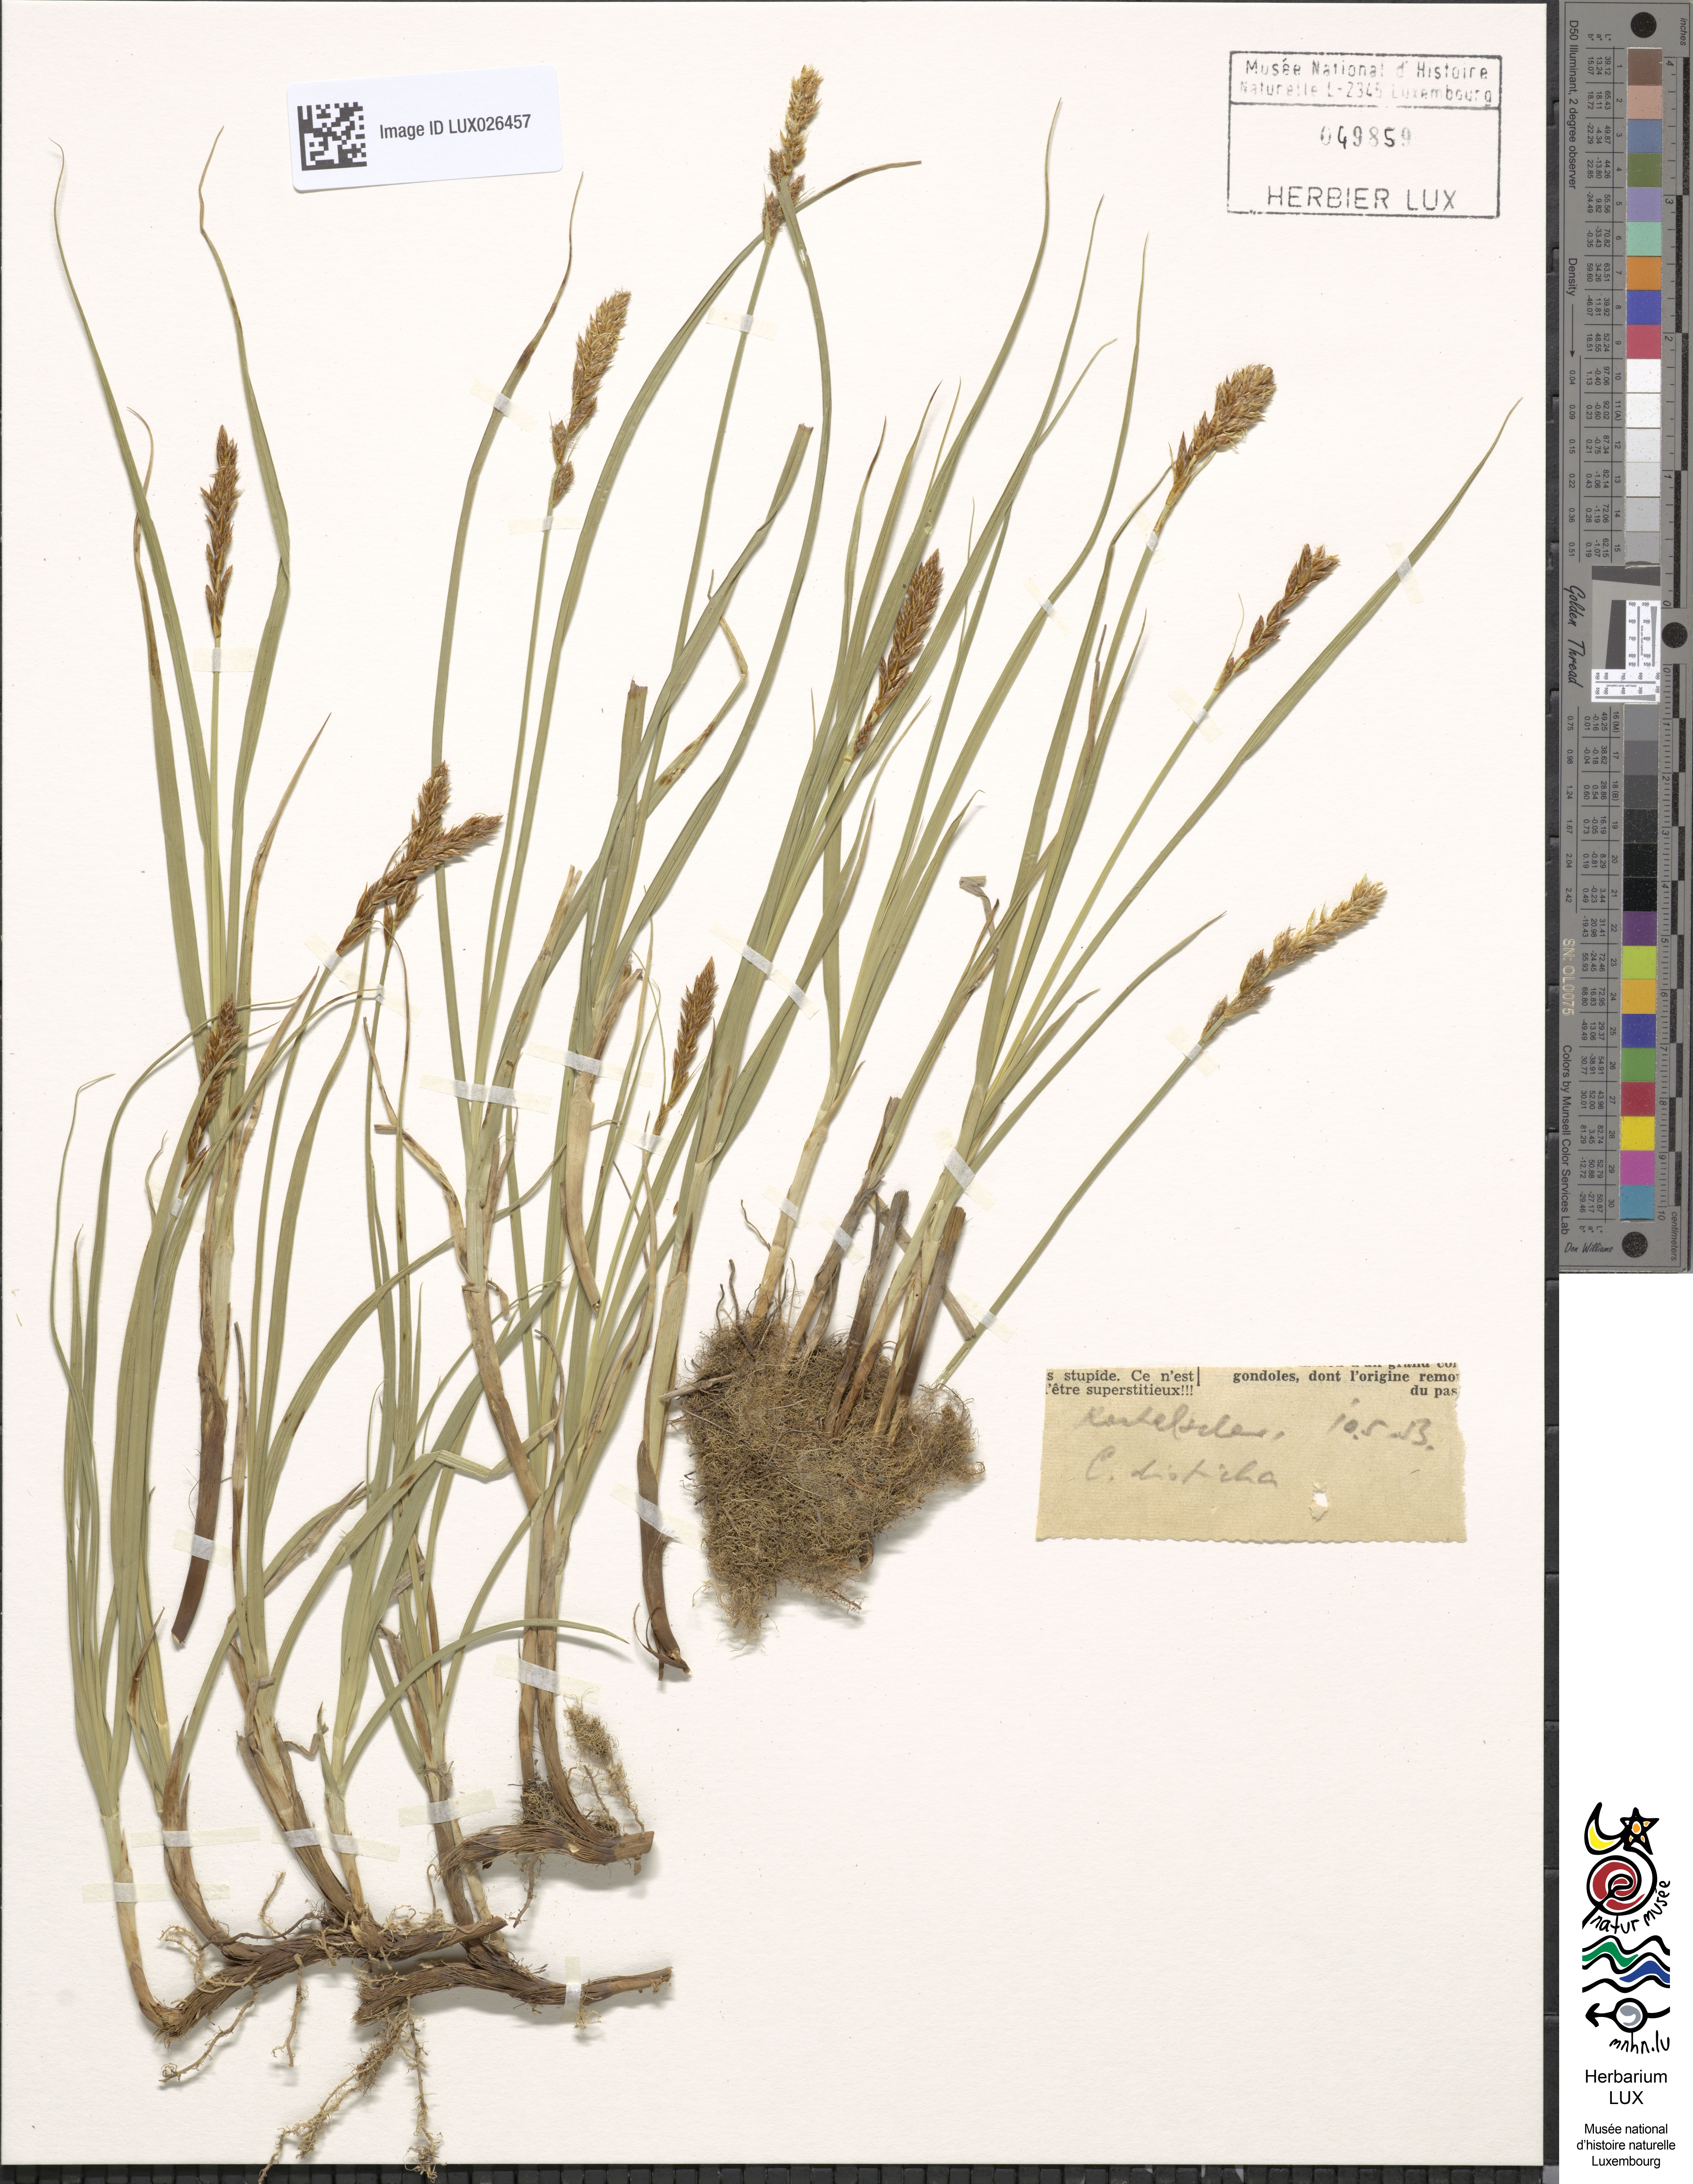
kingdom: Plantae
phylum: Tracheophyta
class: Liliopsida
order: Poales
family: Cyperaceae
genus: Carex
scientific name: Carex disticha
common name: Brown sedge
